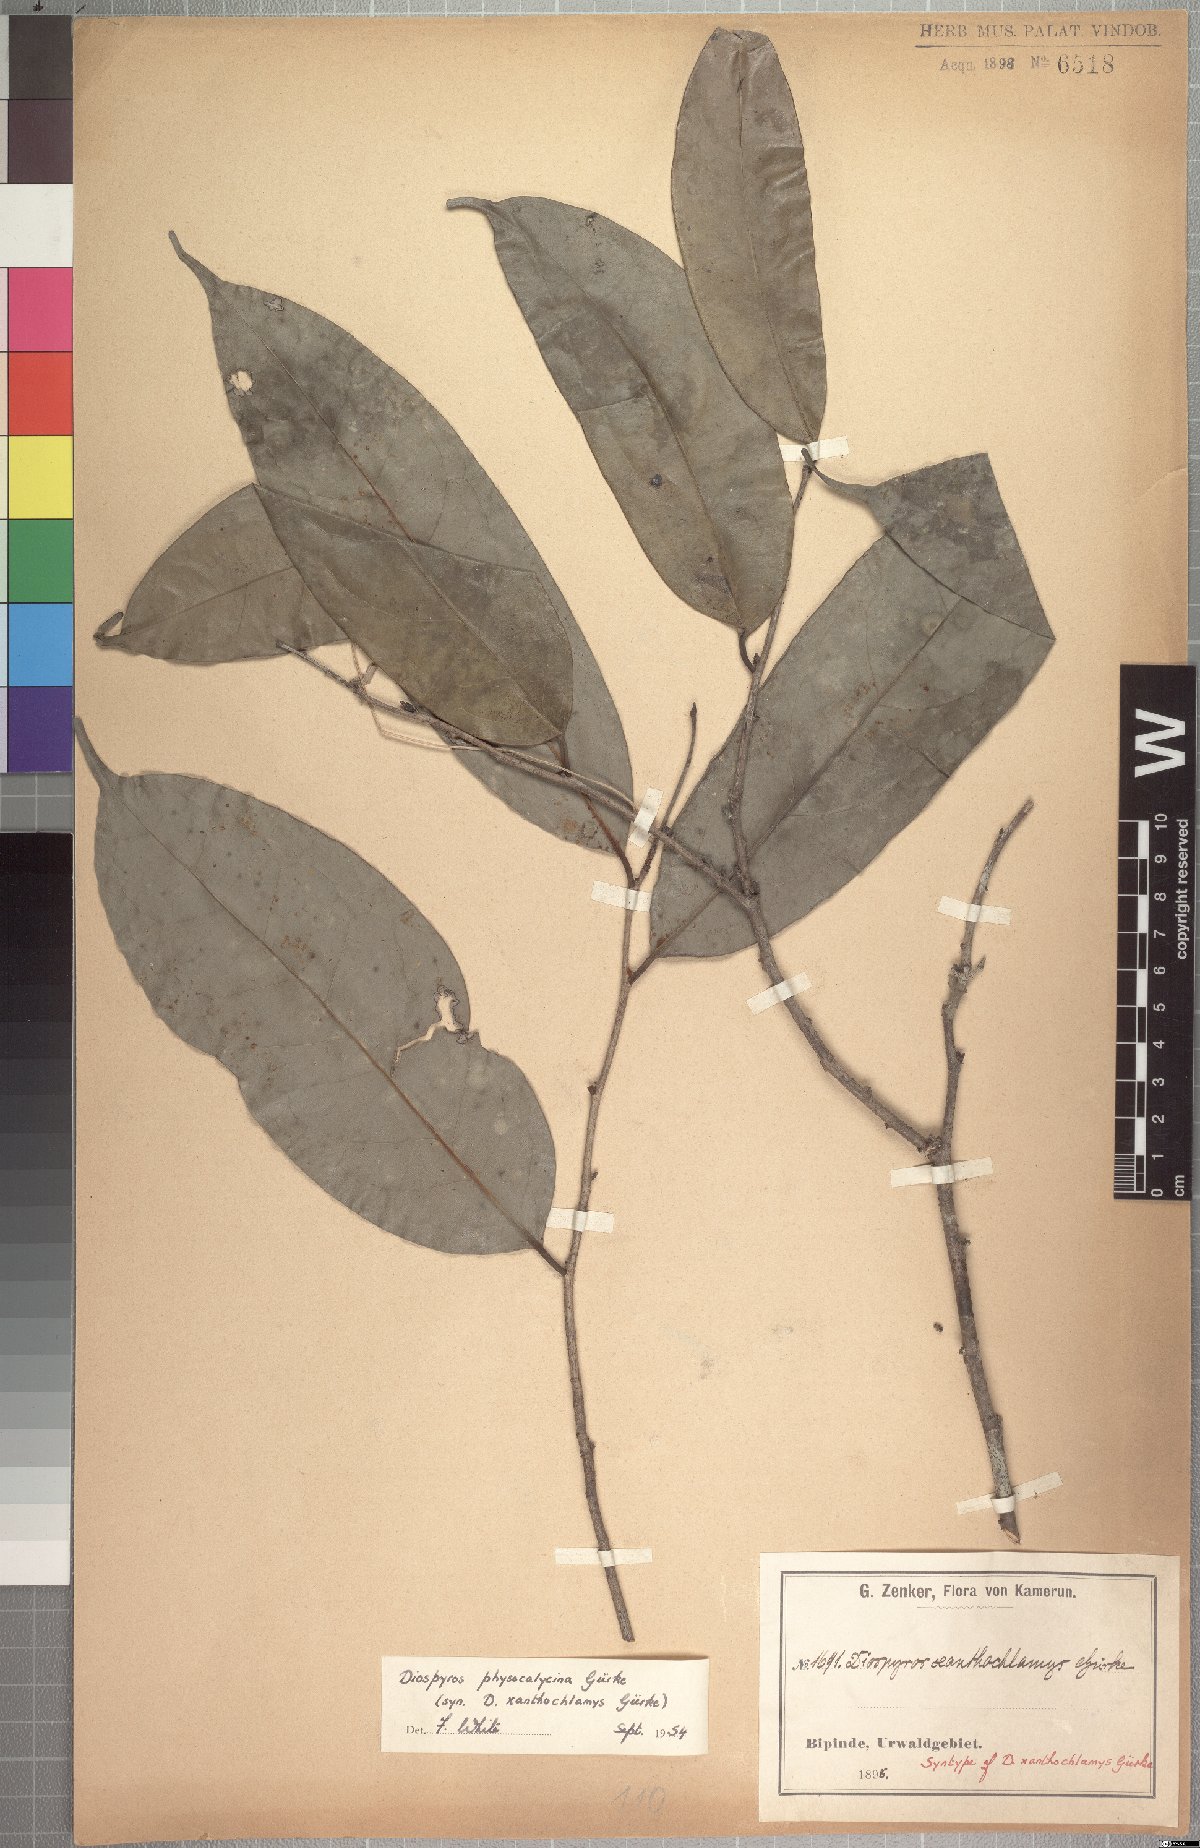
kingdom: Plantae
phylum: Tracheophyta
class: Magnoliopsida
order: Ericales
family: Ebenaceae
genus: Diospyros
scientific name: Diospyros physocalycina
